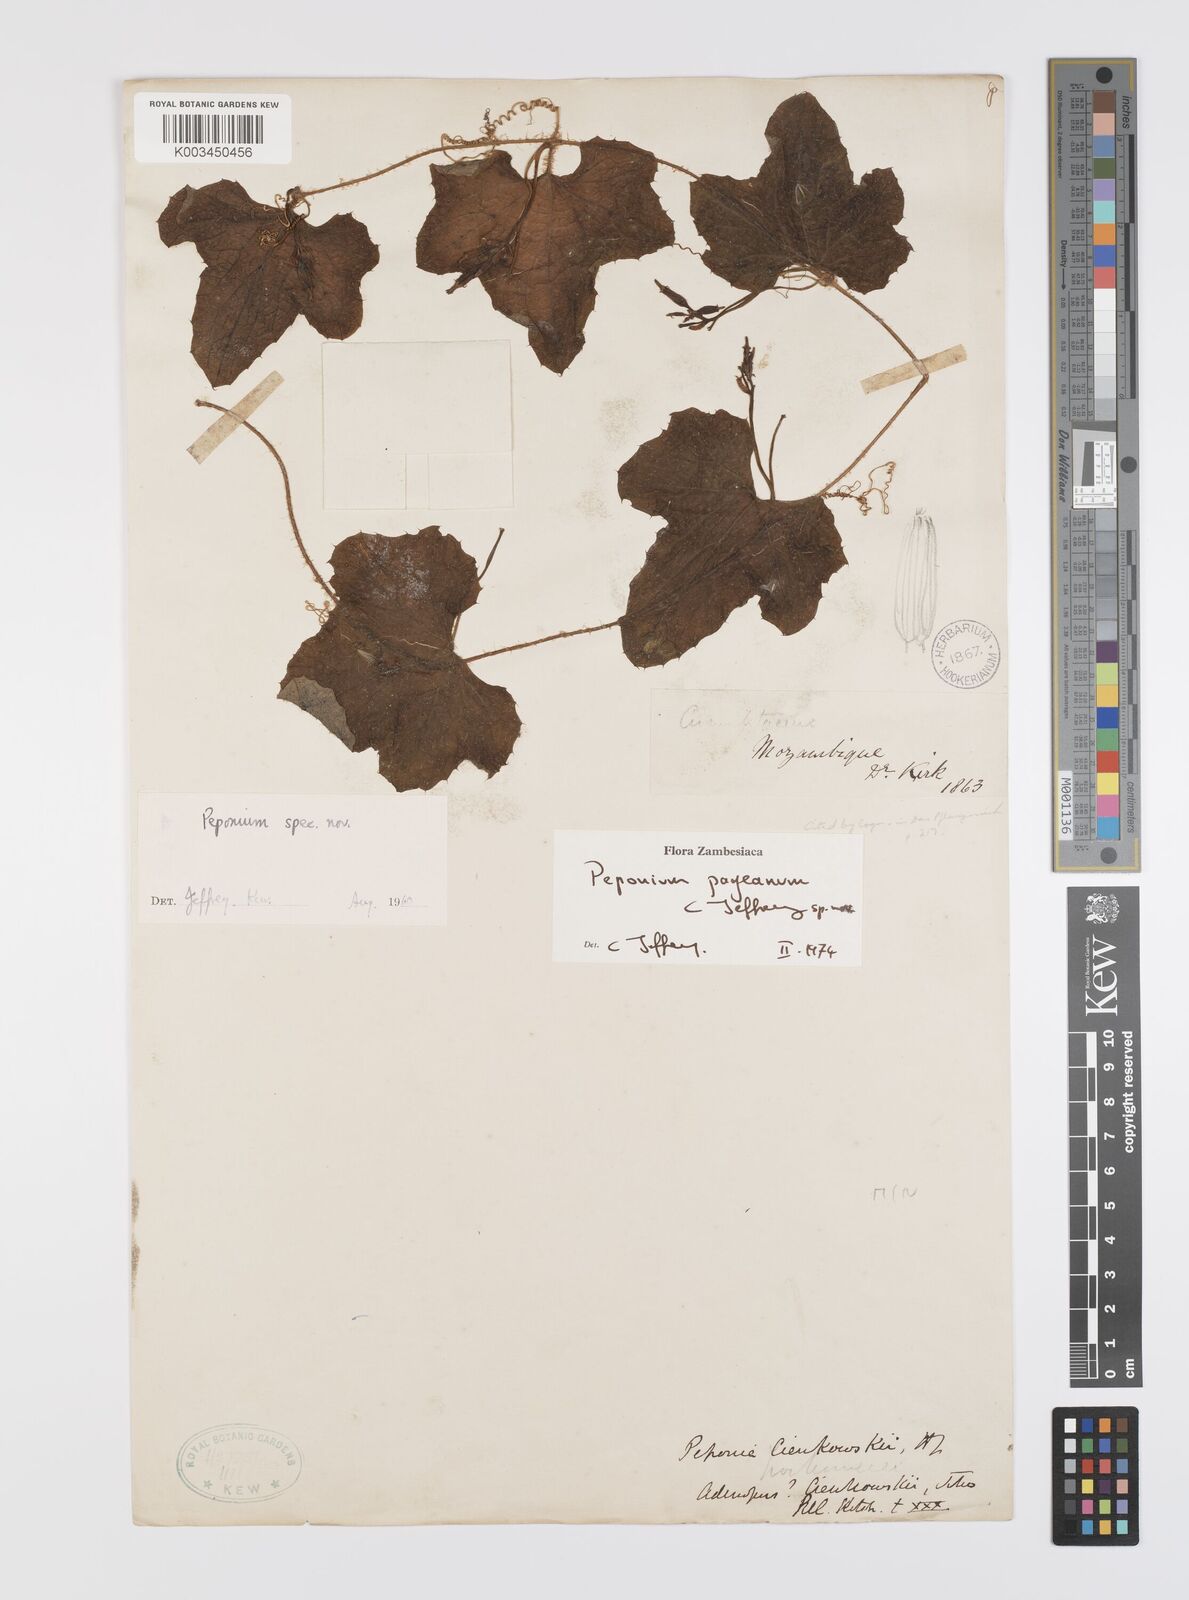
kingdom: Plantae
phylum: Tracheophyta
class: Magnoliopsida
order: Cucurbitales
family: Cucurbitaceae
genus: Peponium
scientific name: Peponium pageanum
